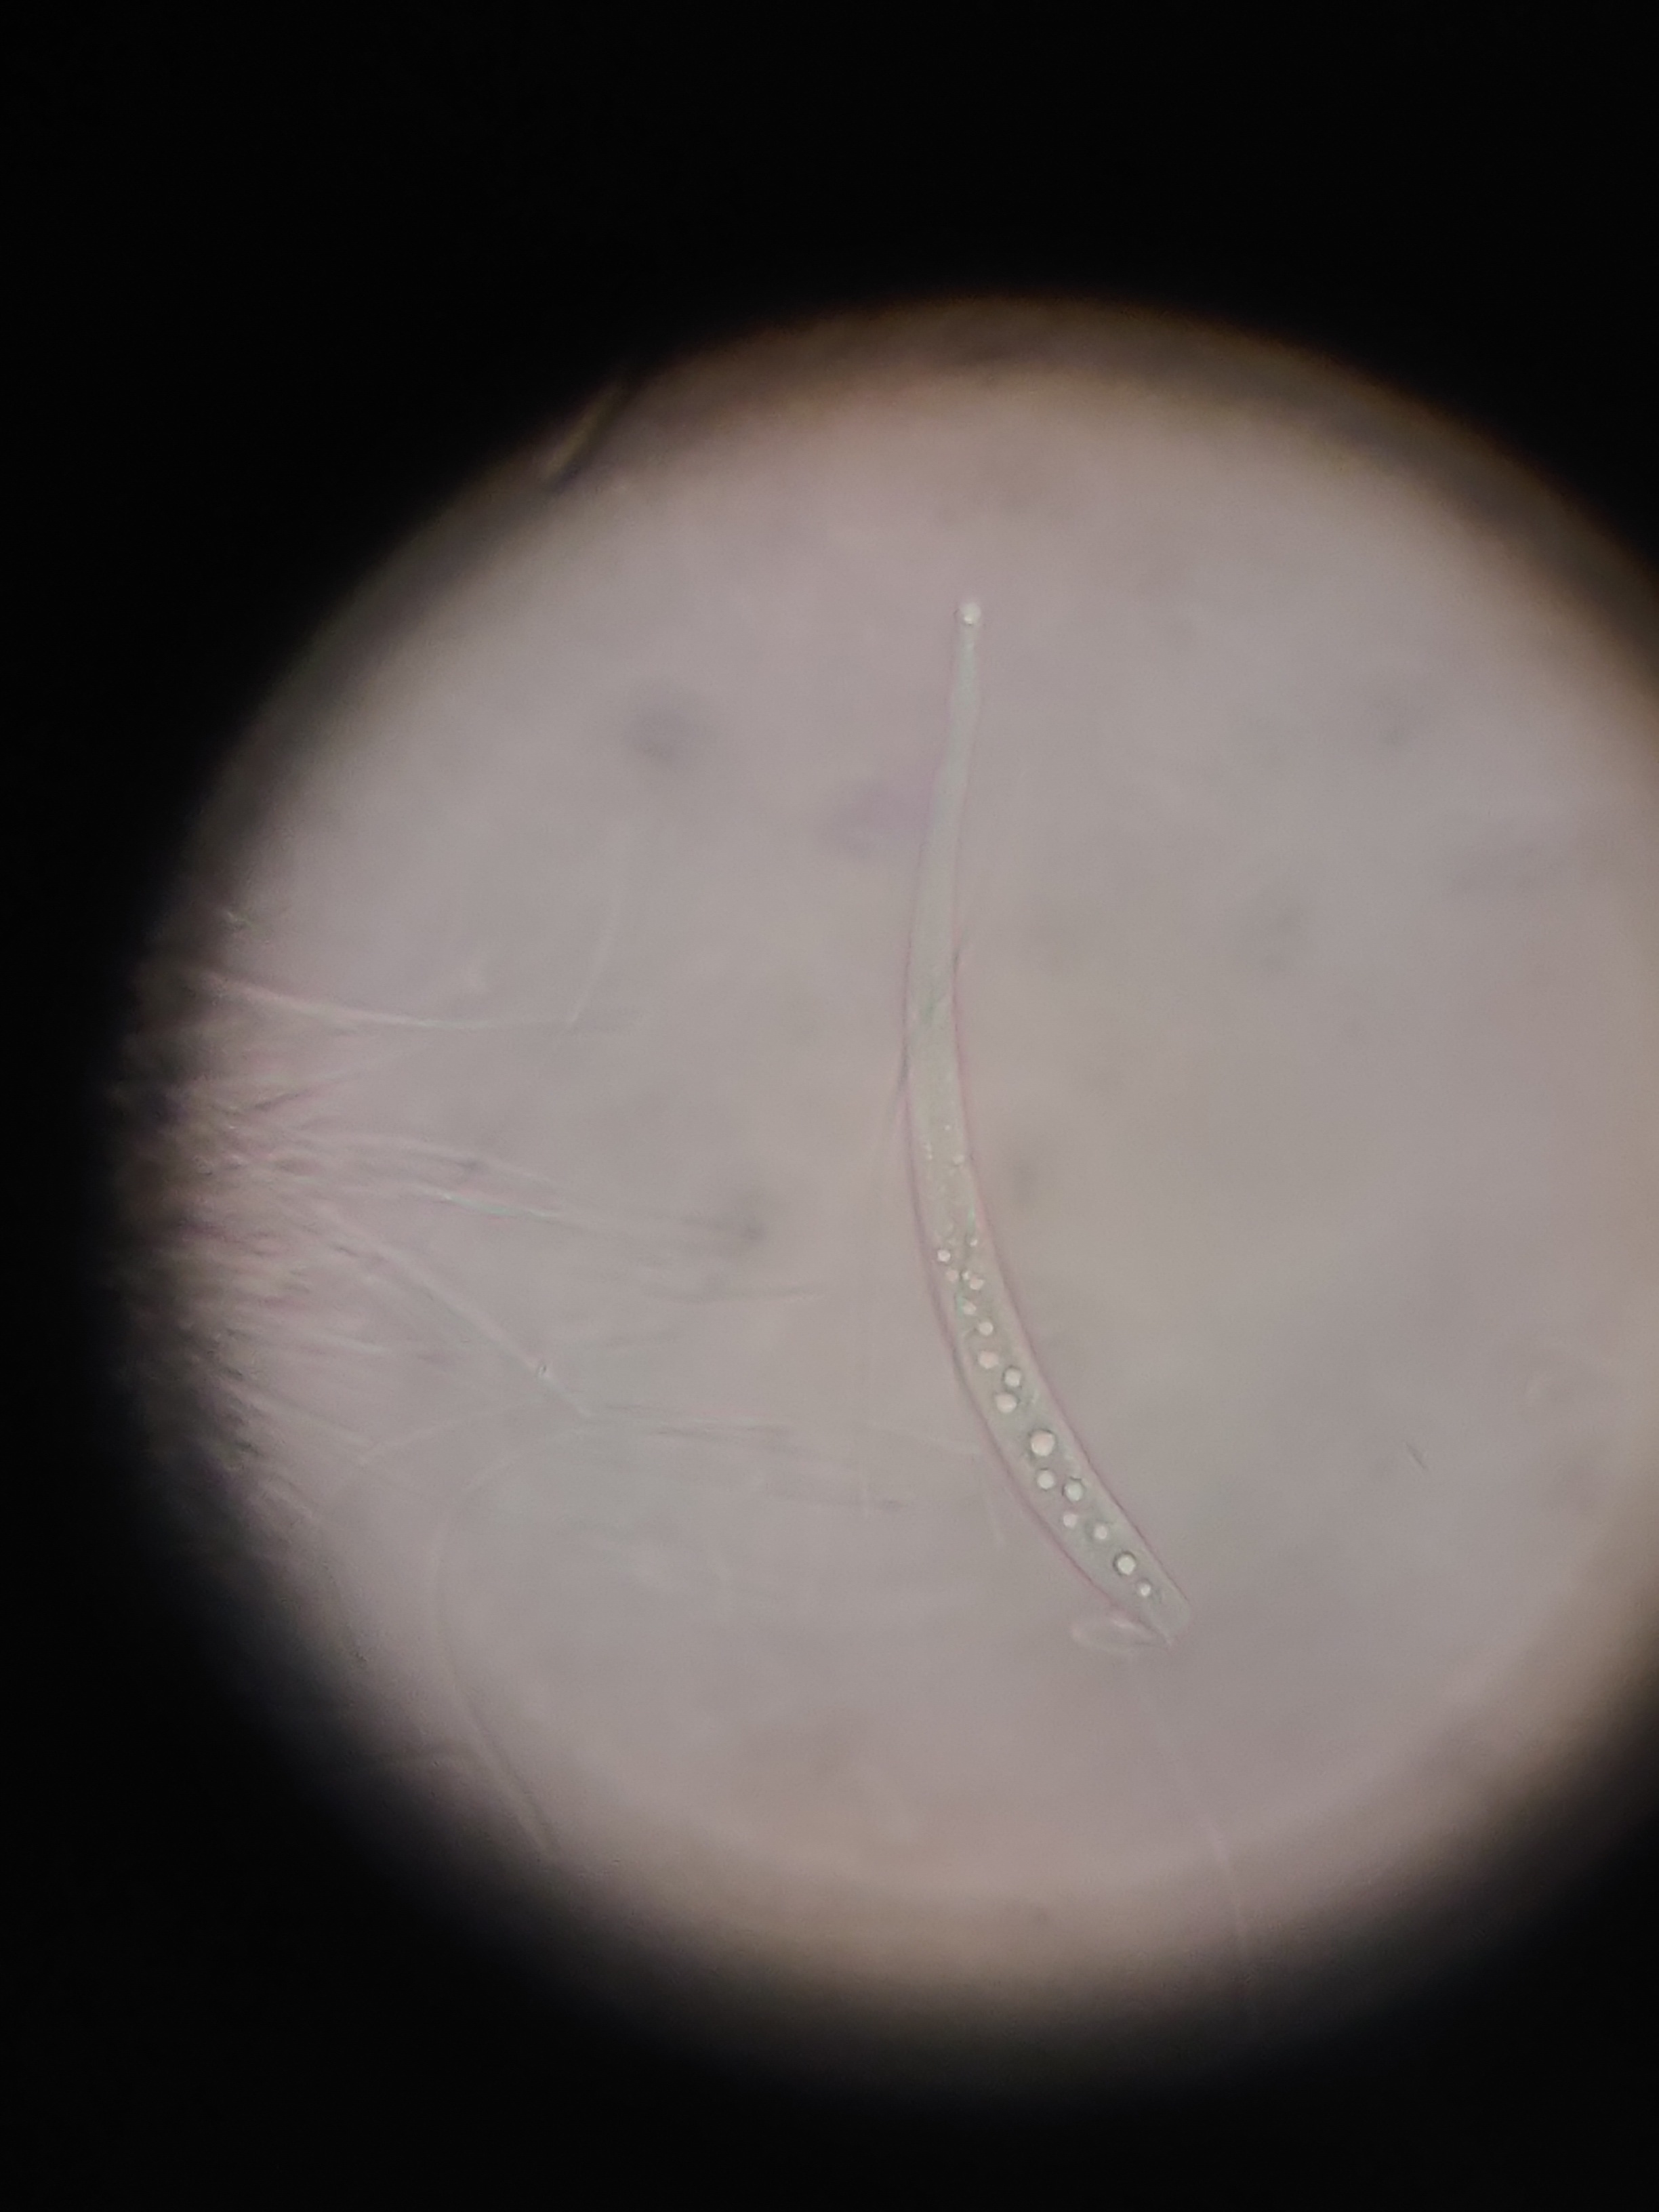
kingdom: Fungi
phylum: Ascomycota
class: Leotiomycetes
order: Helotiales
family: Gelatinodiscaceae
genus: Ascocoryne
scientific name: Ascocoryne sarcoides
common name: rødlilla sejskive
